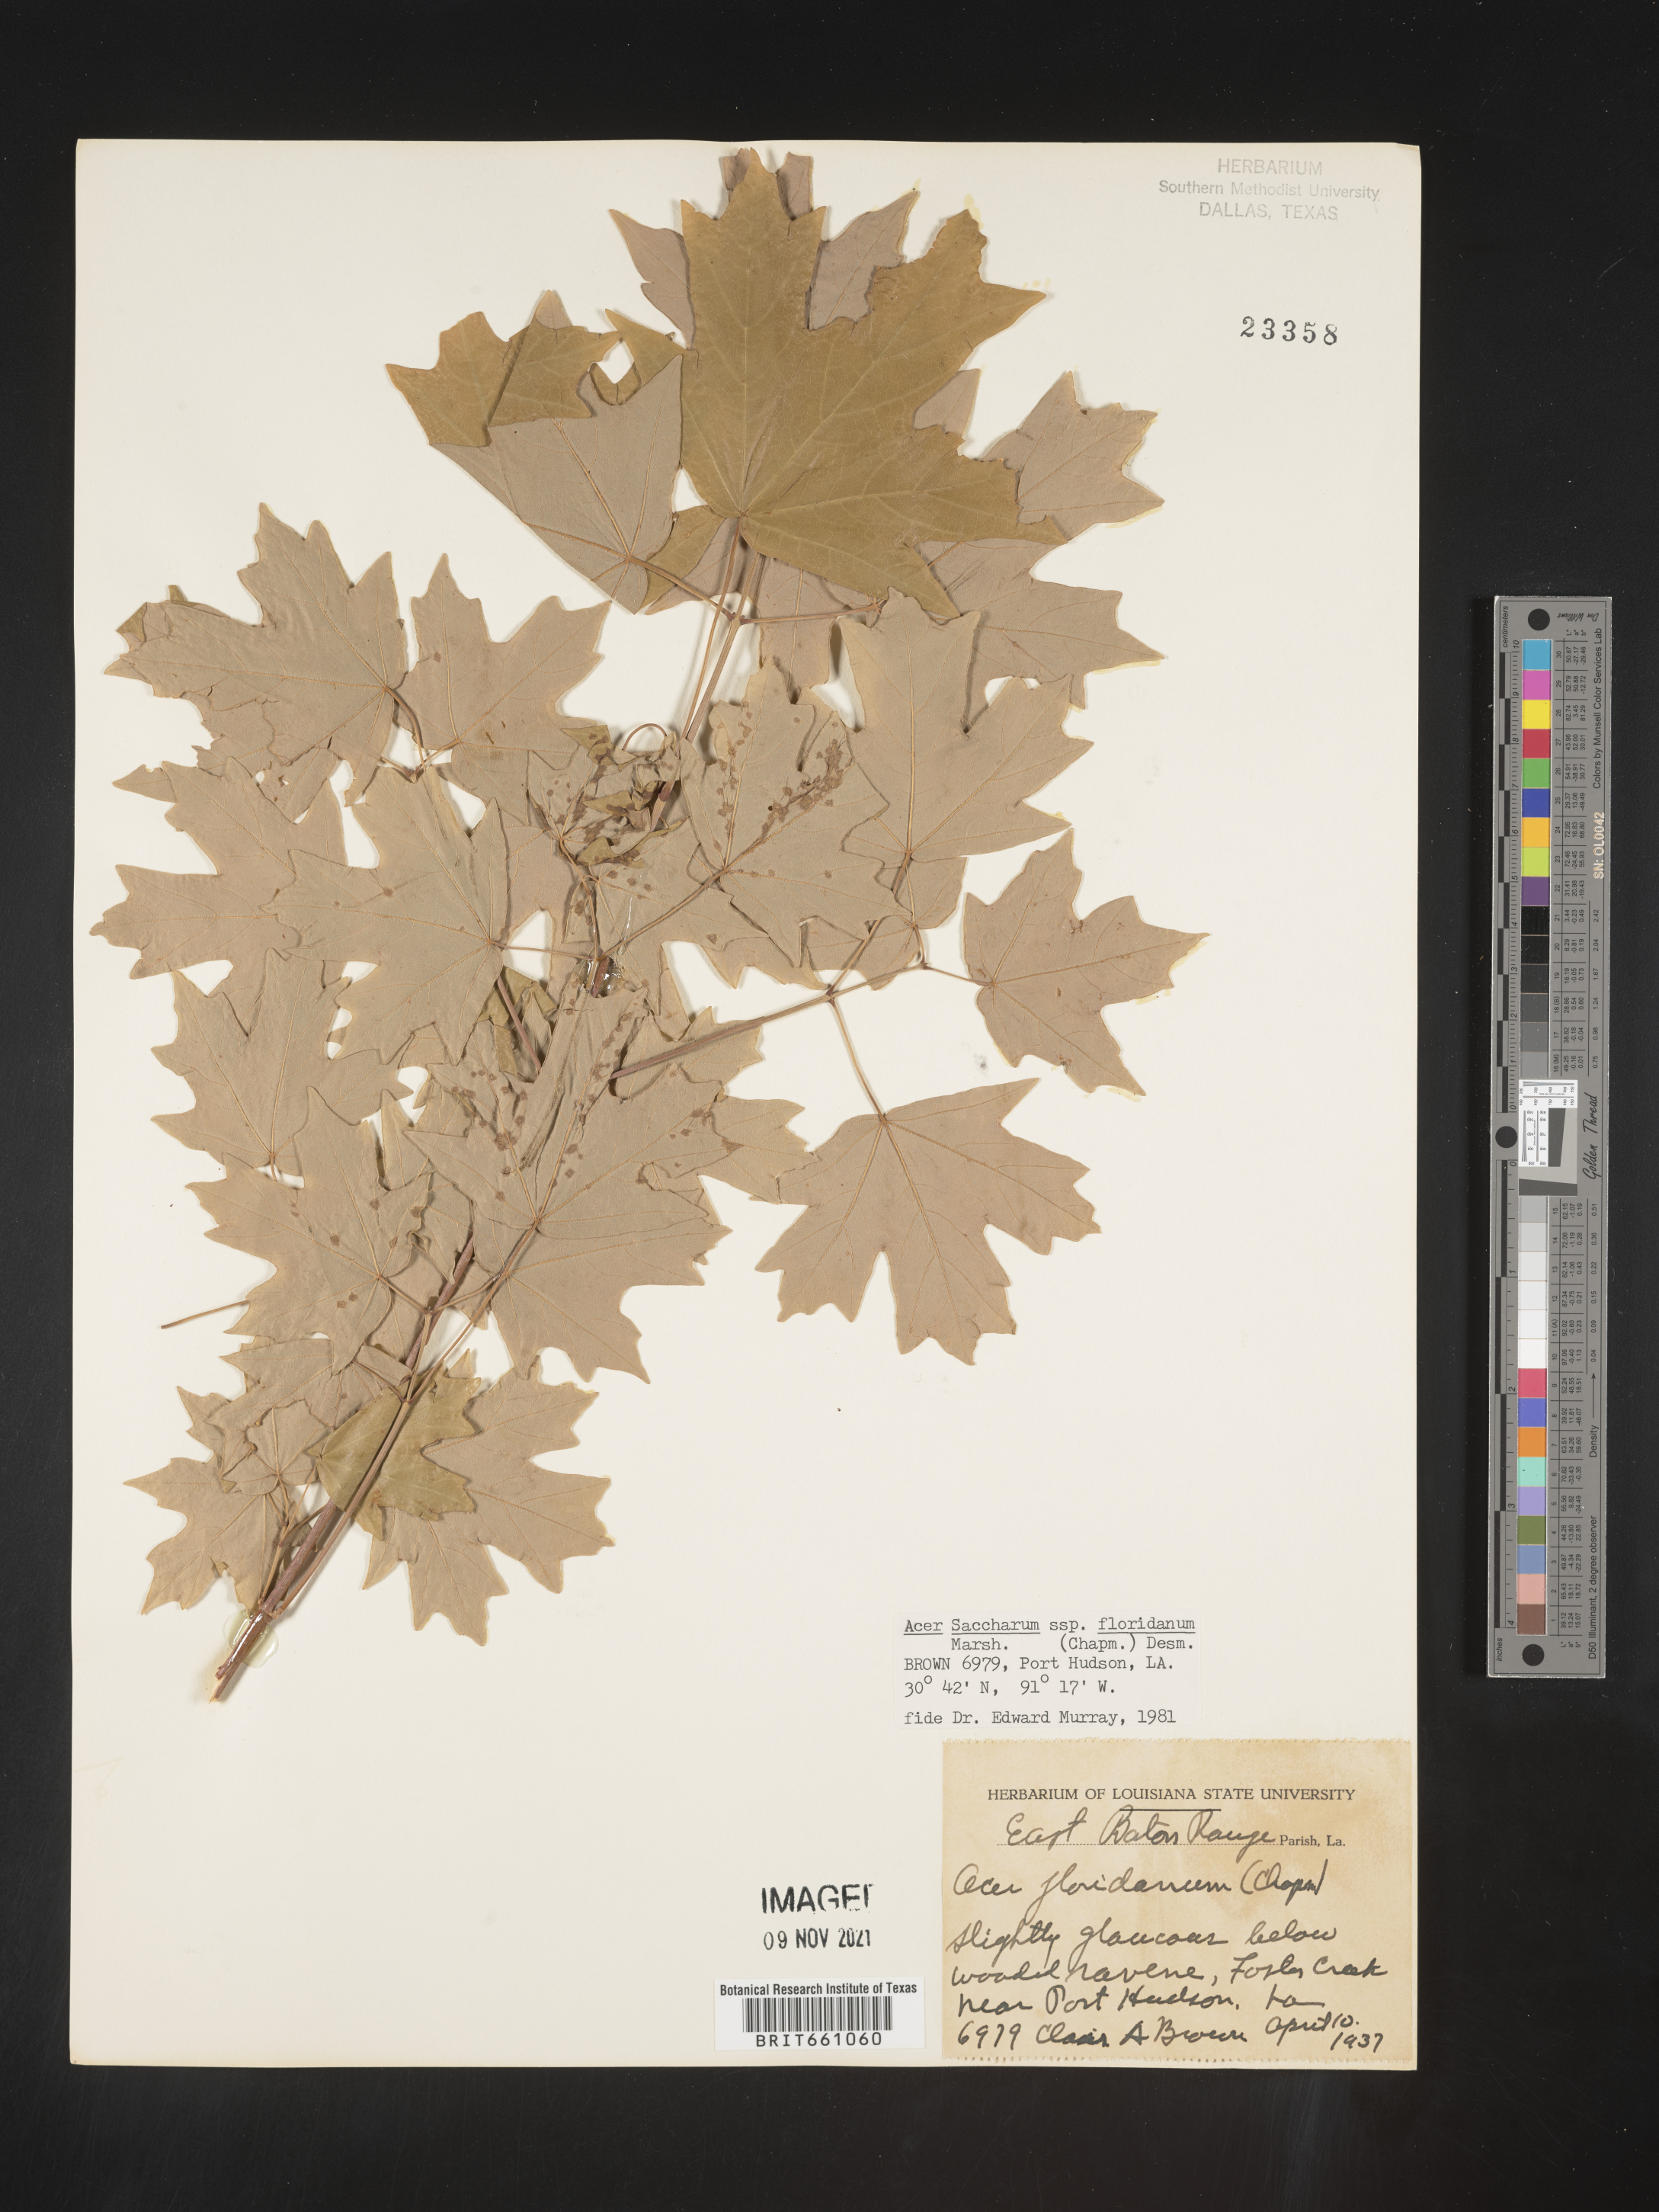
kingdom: Plantae
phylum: Tracheophyta
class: Magnoliopsida
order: Sapindales
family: Sapindaceae
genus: Acer
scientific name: Acer barbatum
